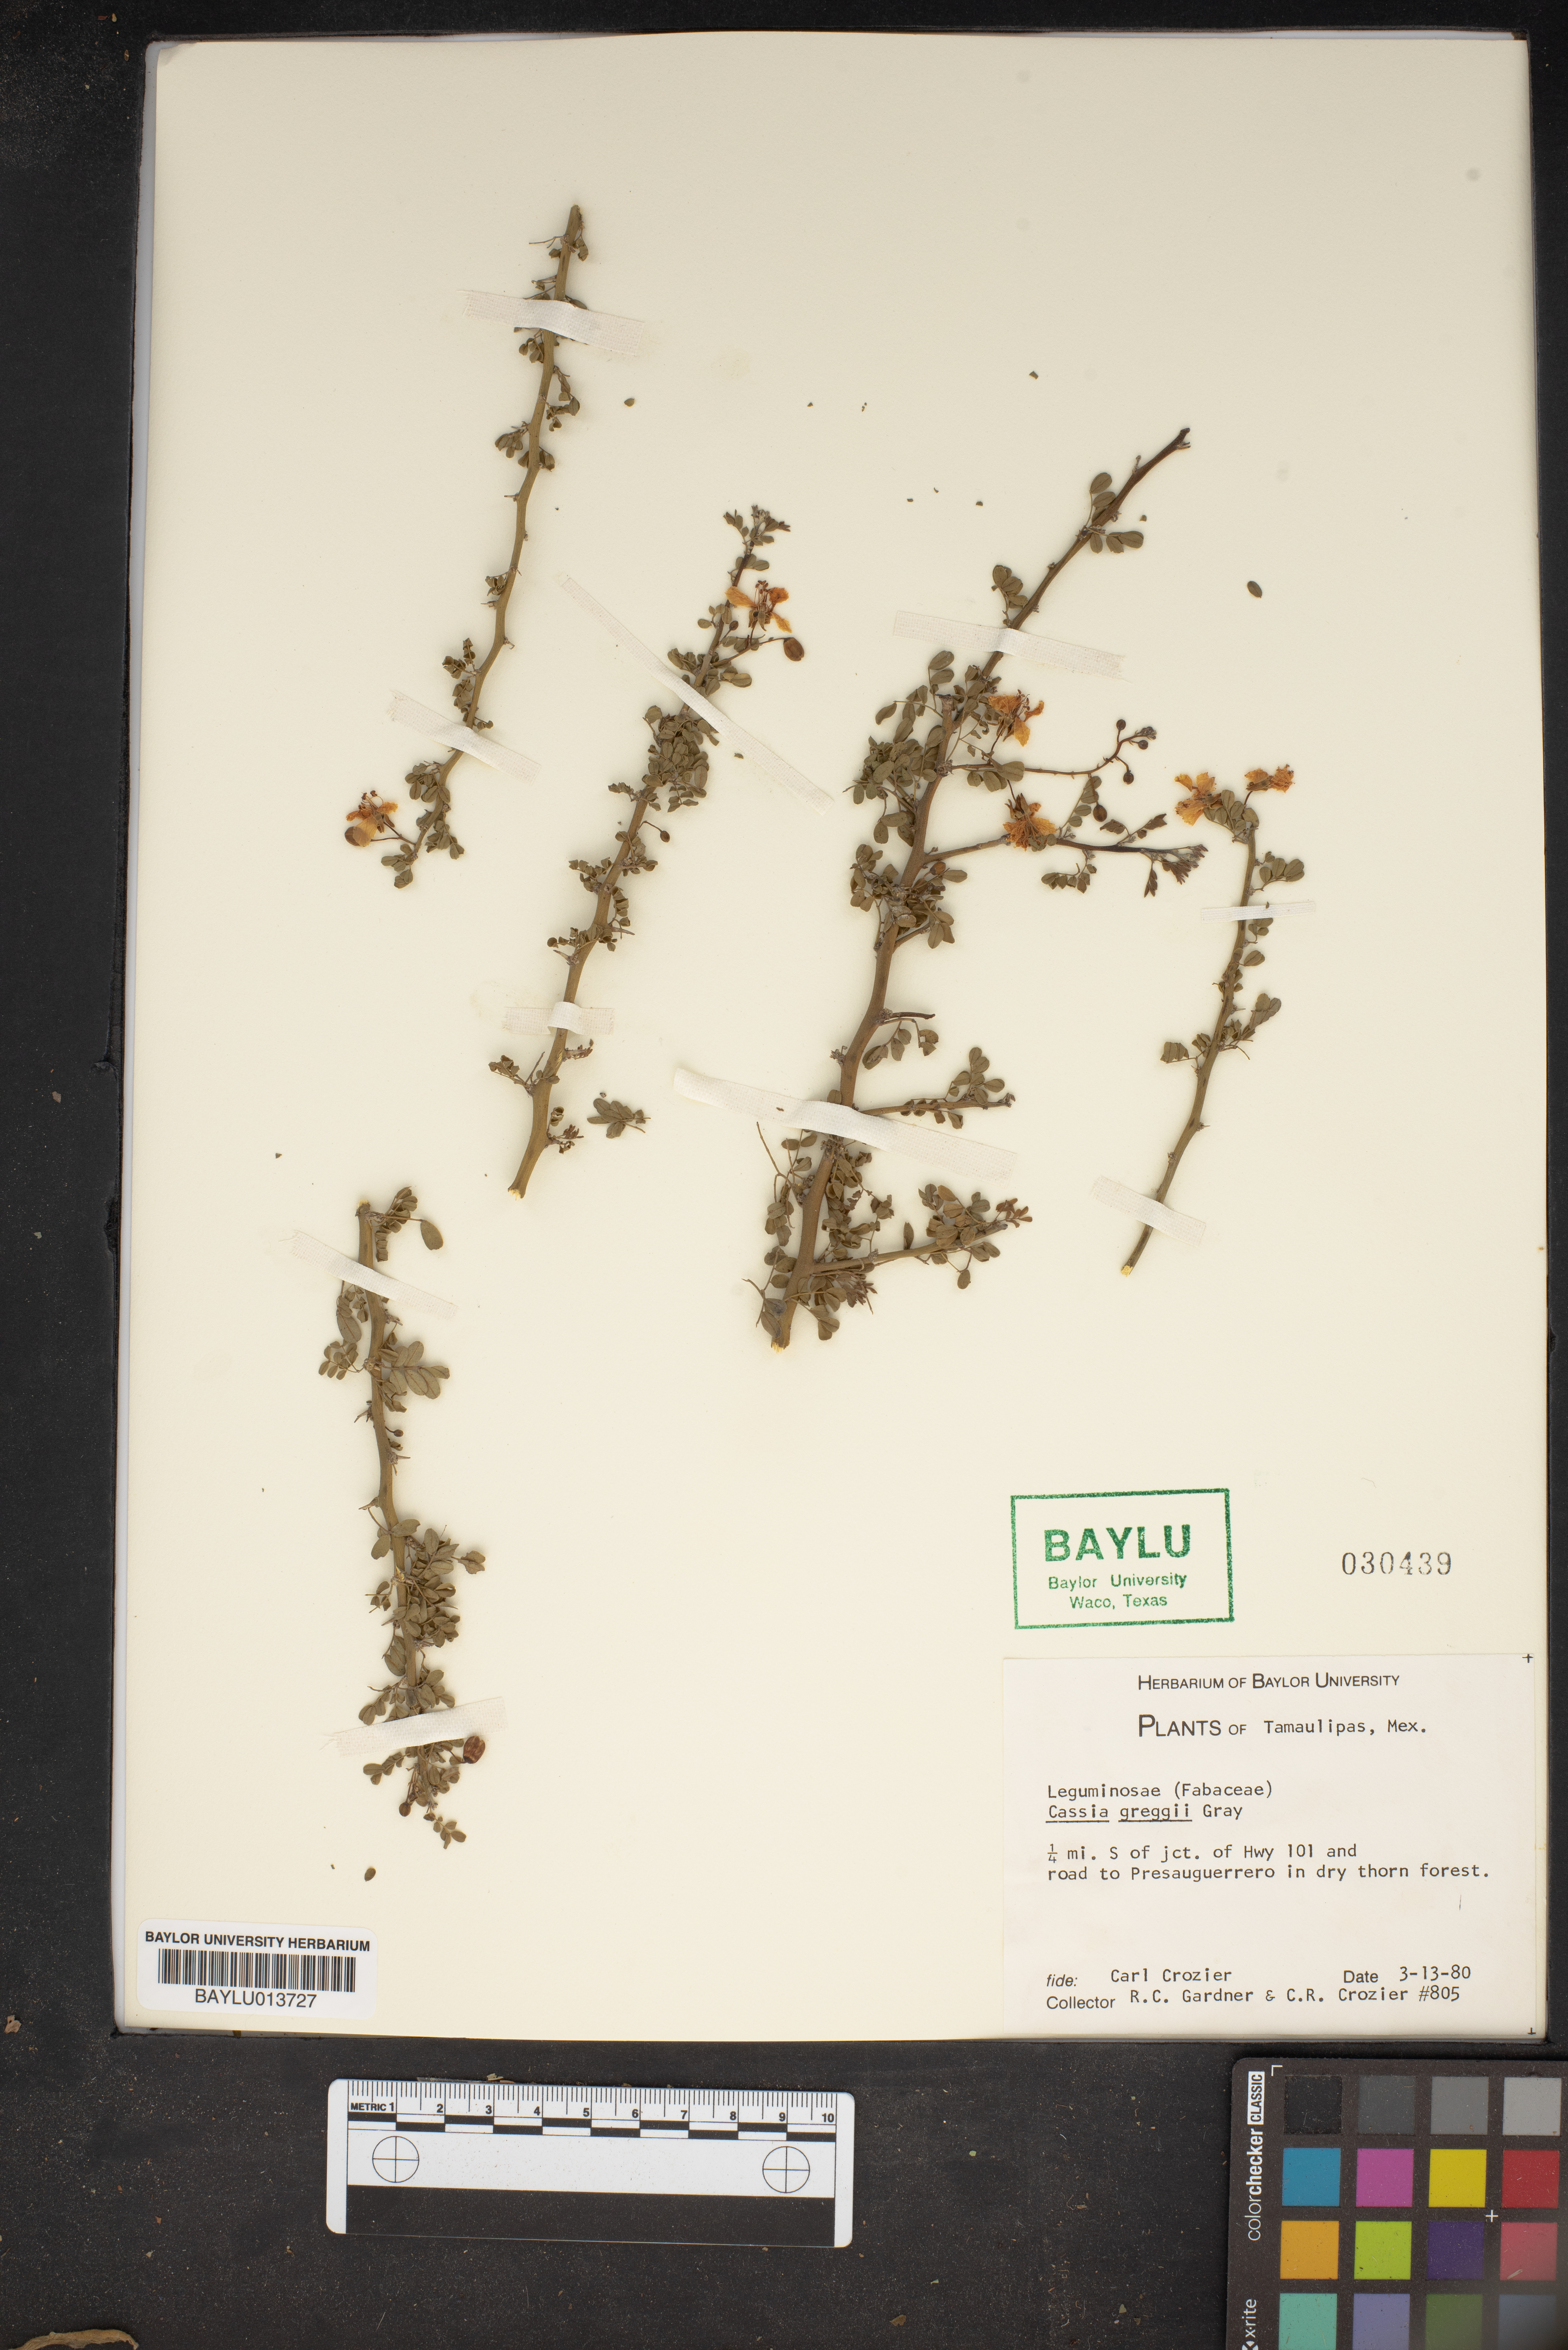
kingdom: Plantae
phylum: Tracheophyta
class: Magnoliopsida
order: Fabales
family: Fabaceae
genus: Chamaecrista
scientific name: Chamaecrista greggii
